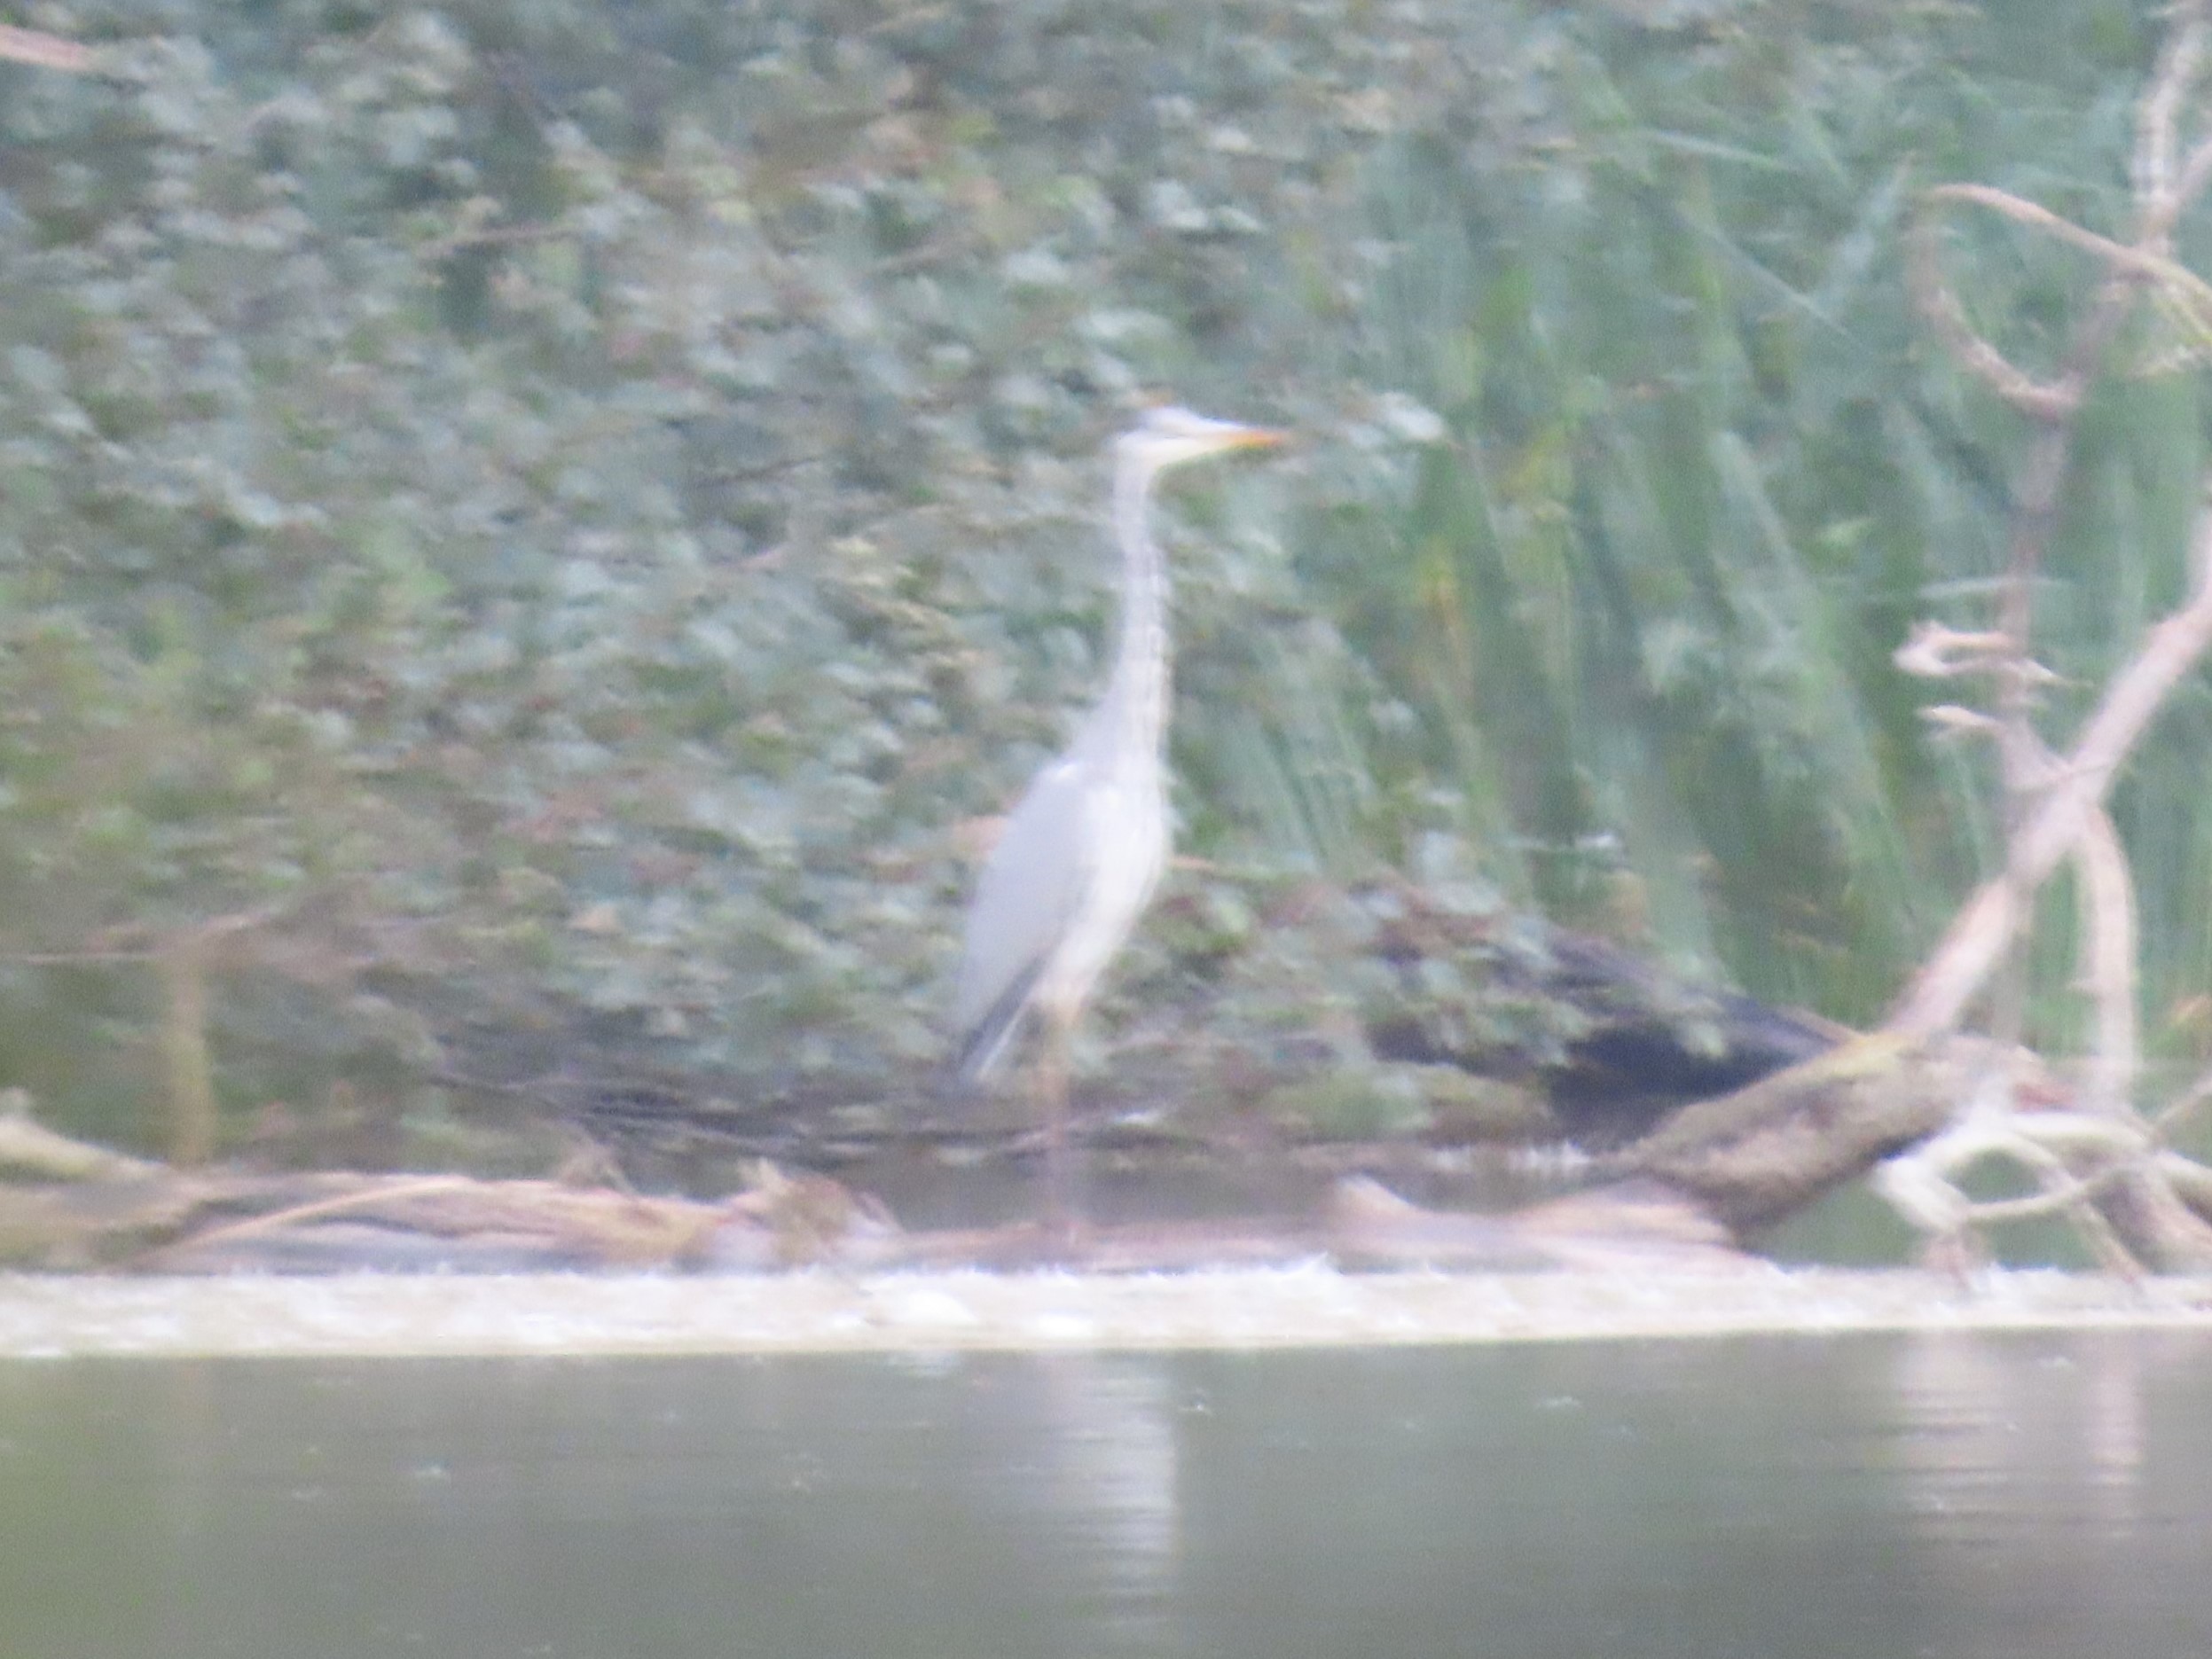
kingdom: Animalia
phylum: Chordata
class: Aves
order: Pelecaniformes
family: Ardeidae
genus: Ardea
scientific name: Ardea cinerea
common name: Fiskehejre
